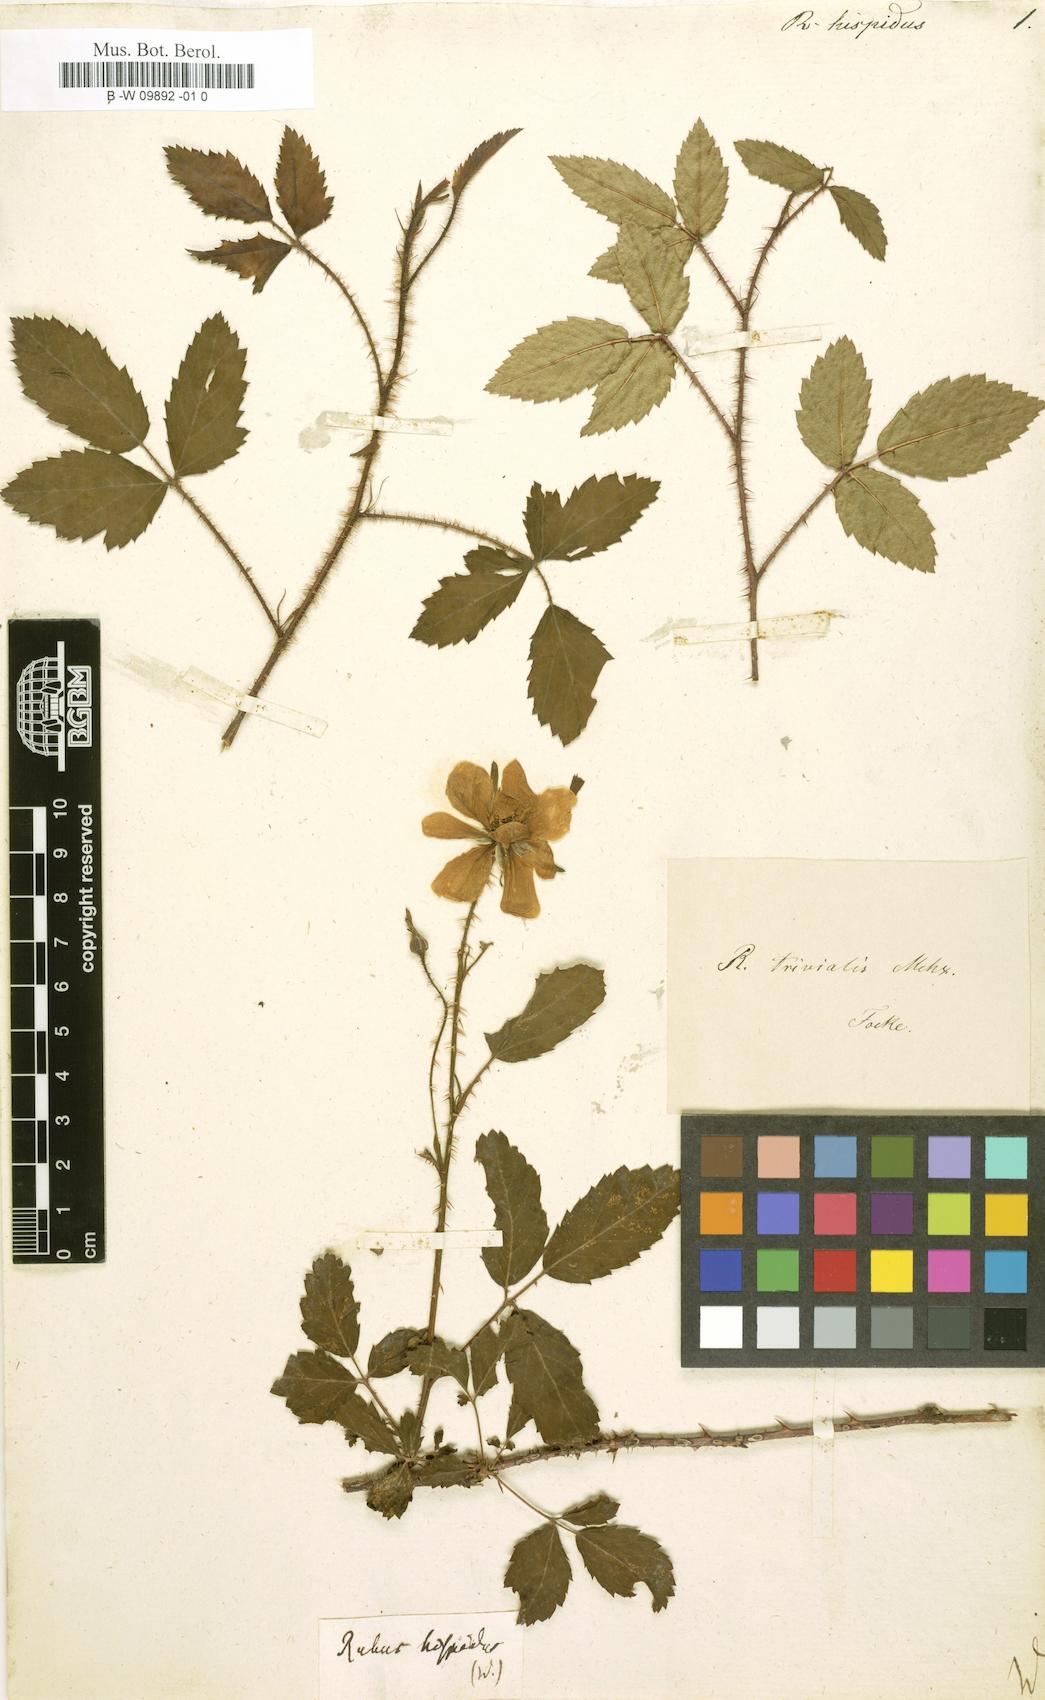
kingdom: Plantae
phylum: Tracheophyta
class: Magnoliopsida
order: Rosales
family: Rosaceae
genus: Rubus
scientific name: Rubus hispidus
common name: Running blackberry
